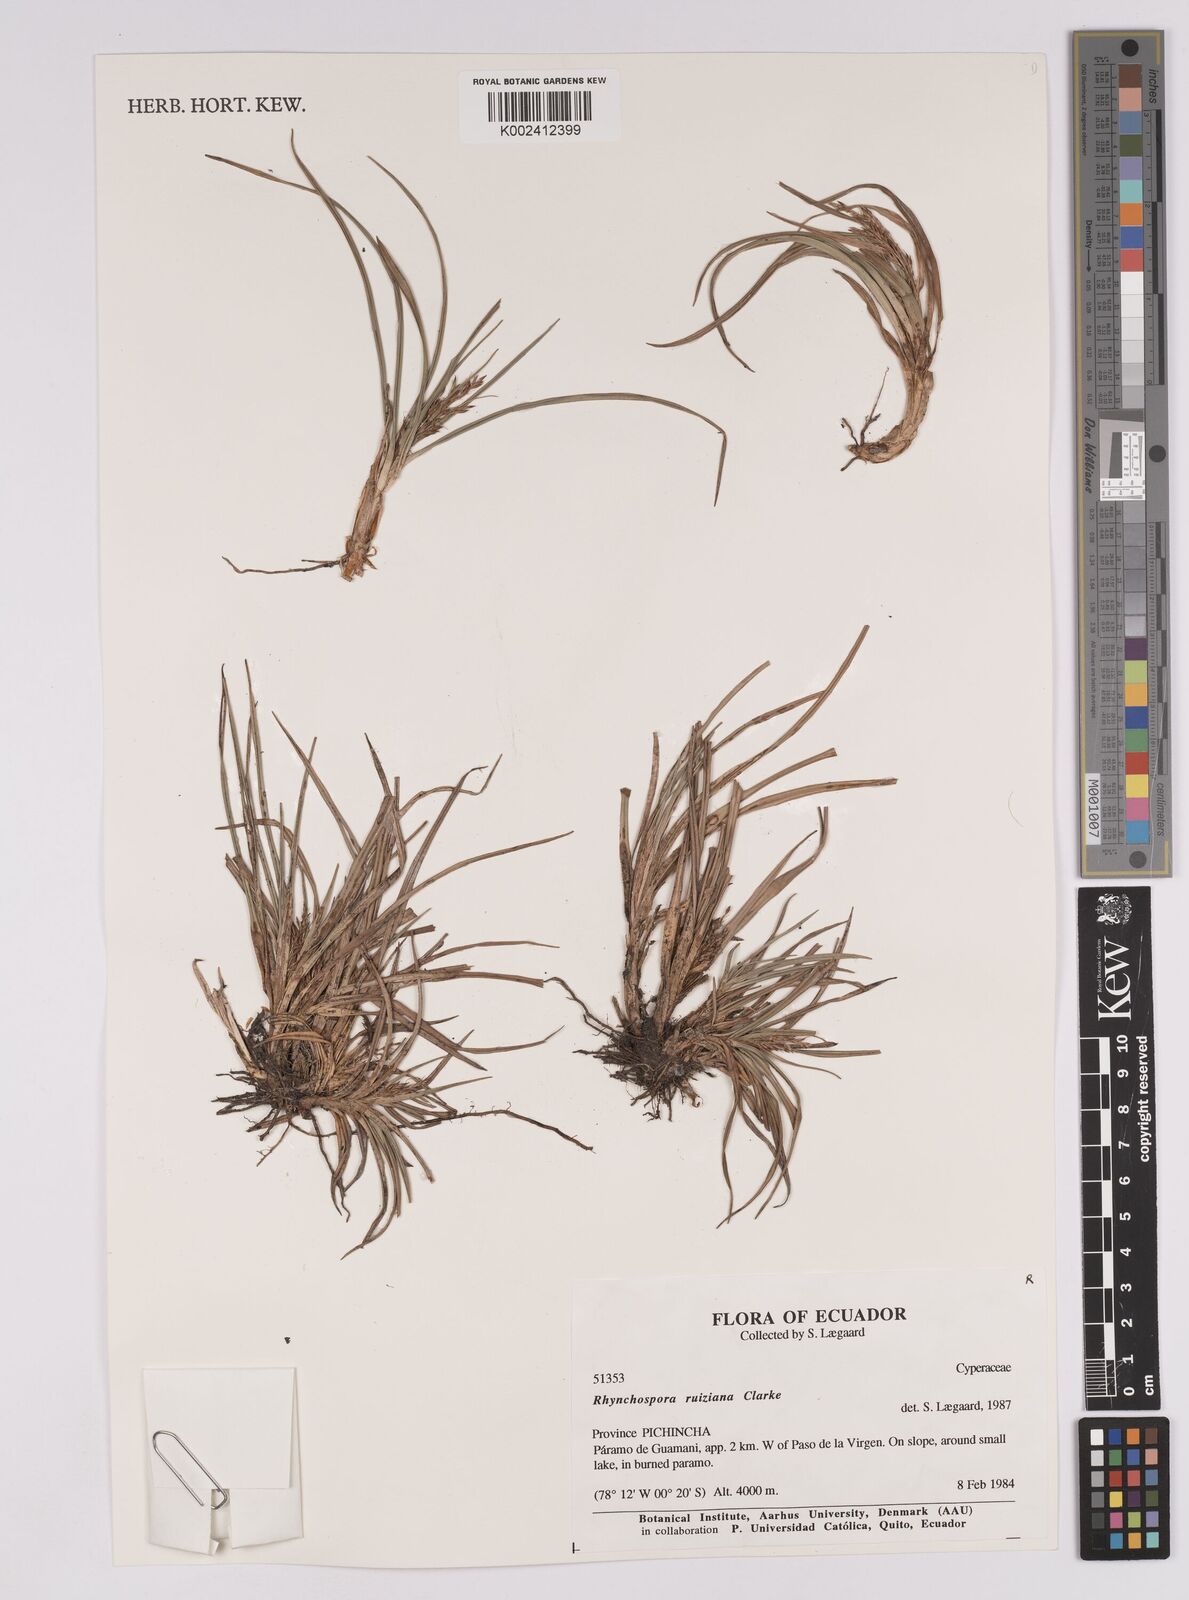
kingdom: Plantae
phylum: Tracheophyta
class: Liliopsida
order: Poales
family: Cyperaceae
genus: Rhynchospora
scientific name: Rhynchospora ruiziana
